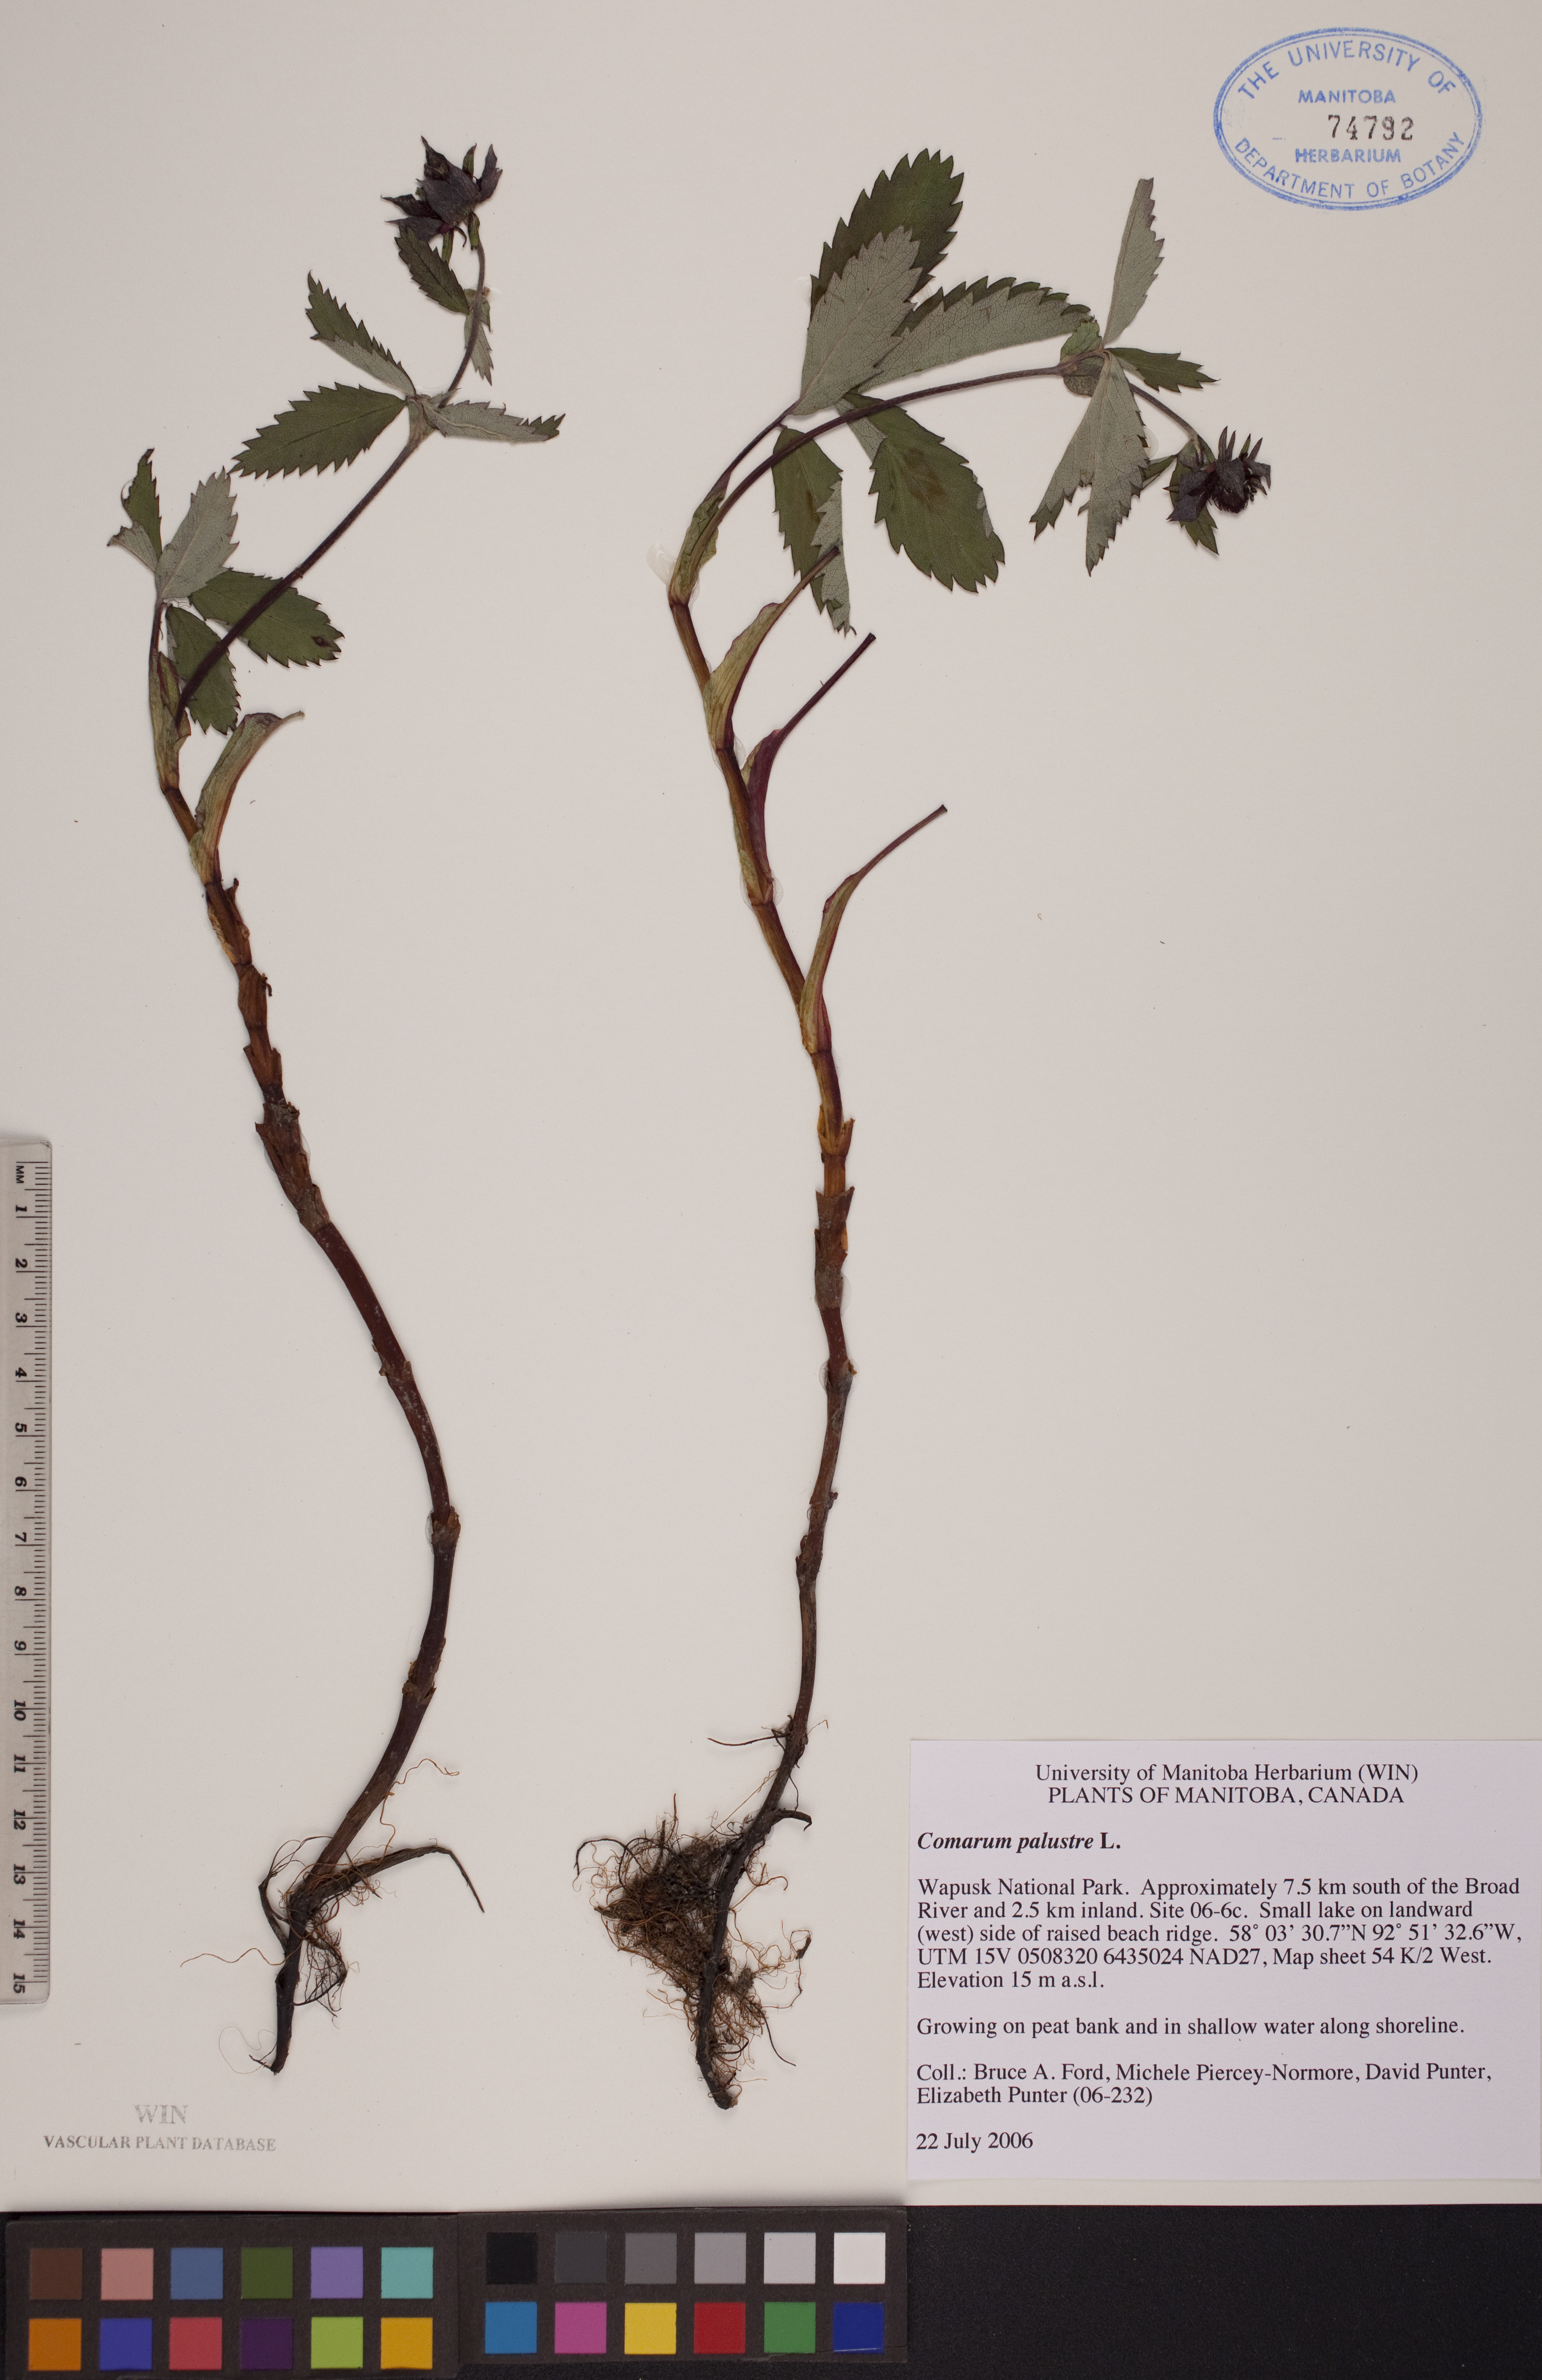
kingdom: Plantae
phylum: Tracheophyta
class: Magnoliopsida
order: Rosales
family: Rosaceae
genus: Comarum
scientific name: Comarum palustre
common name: Marsh cinquefoil
